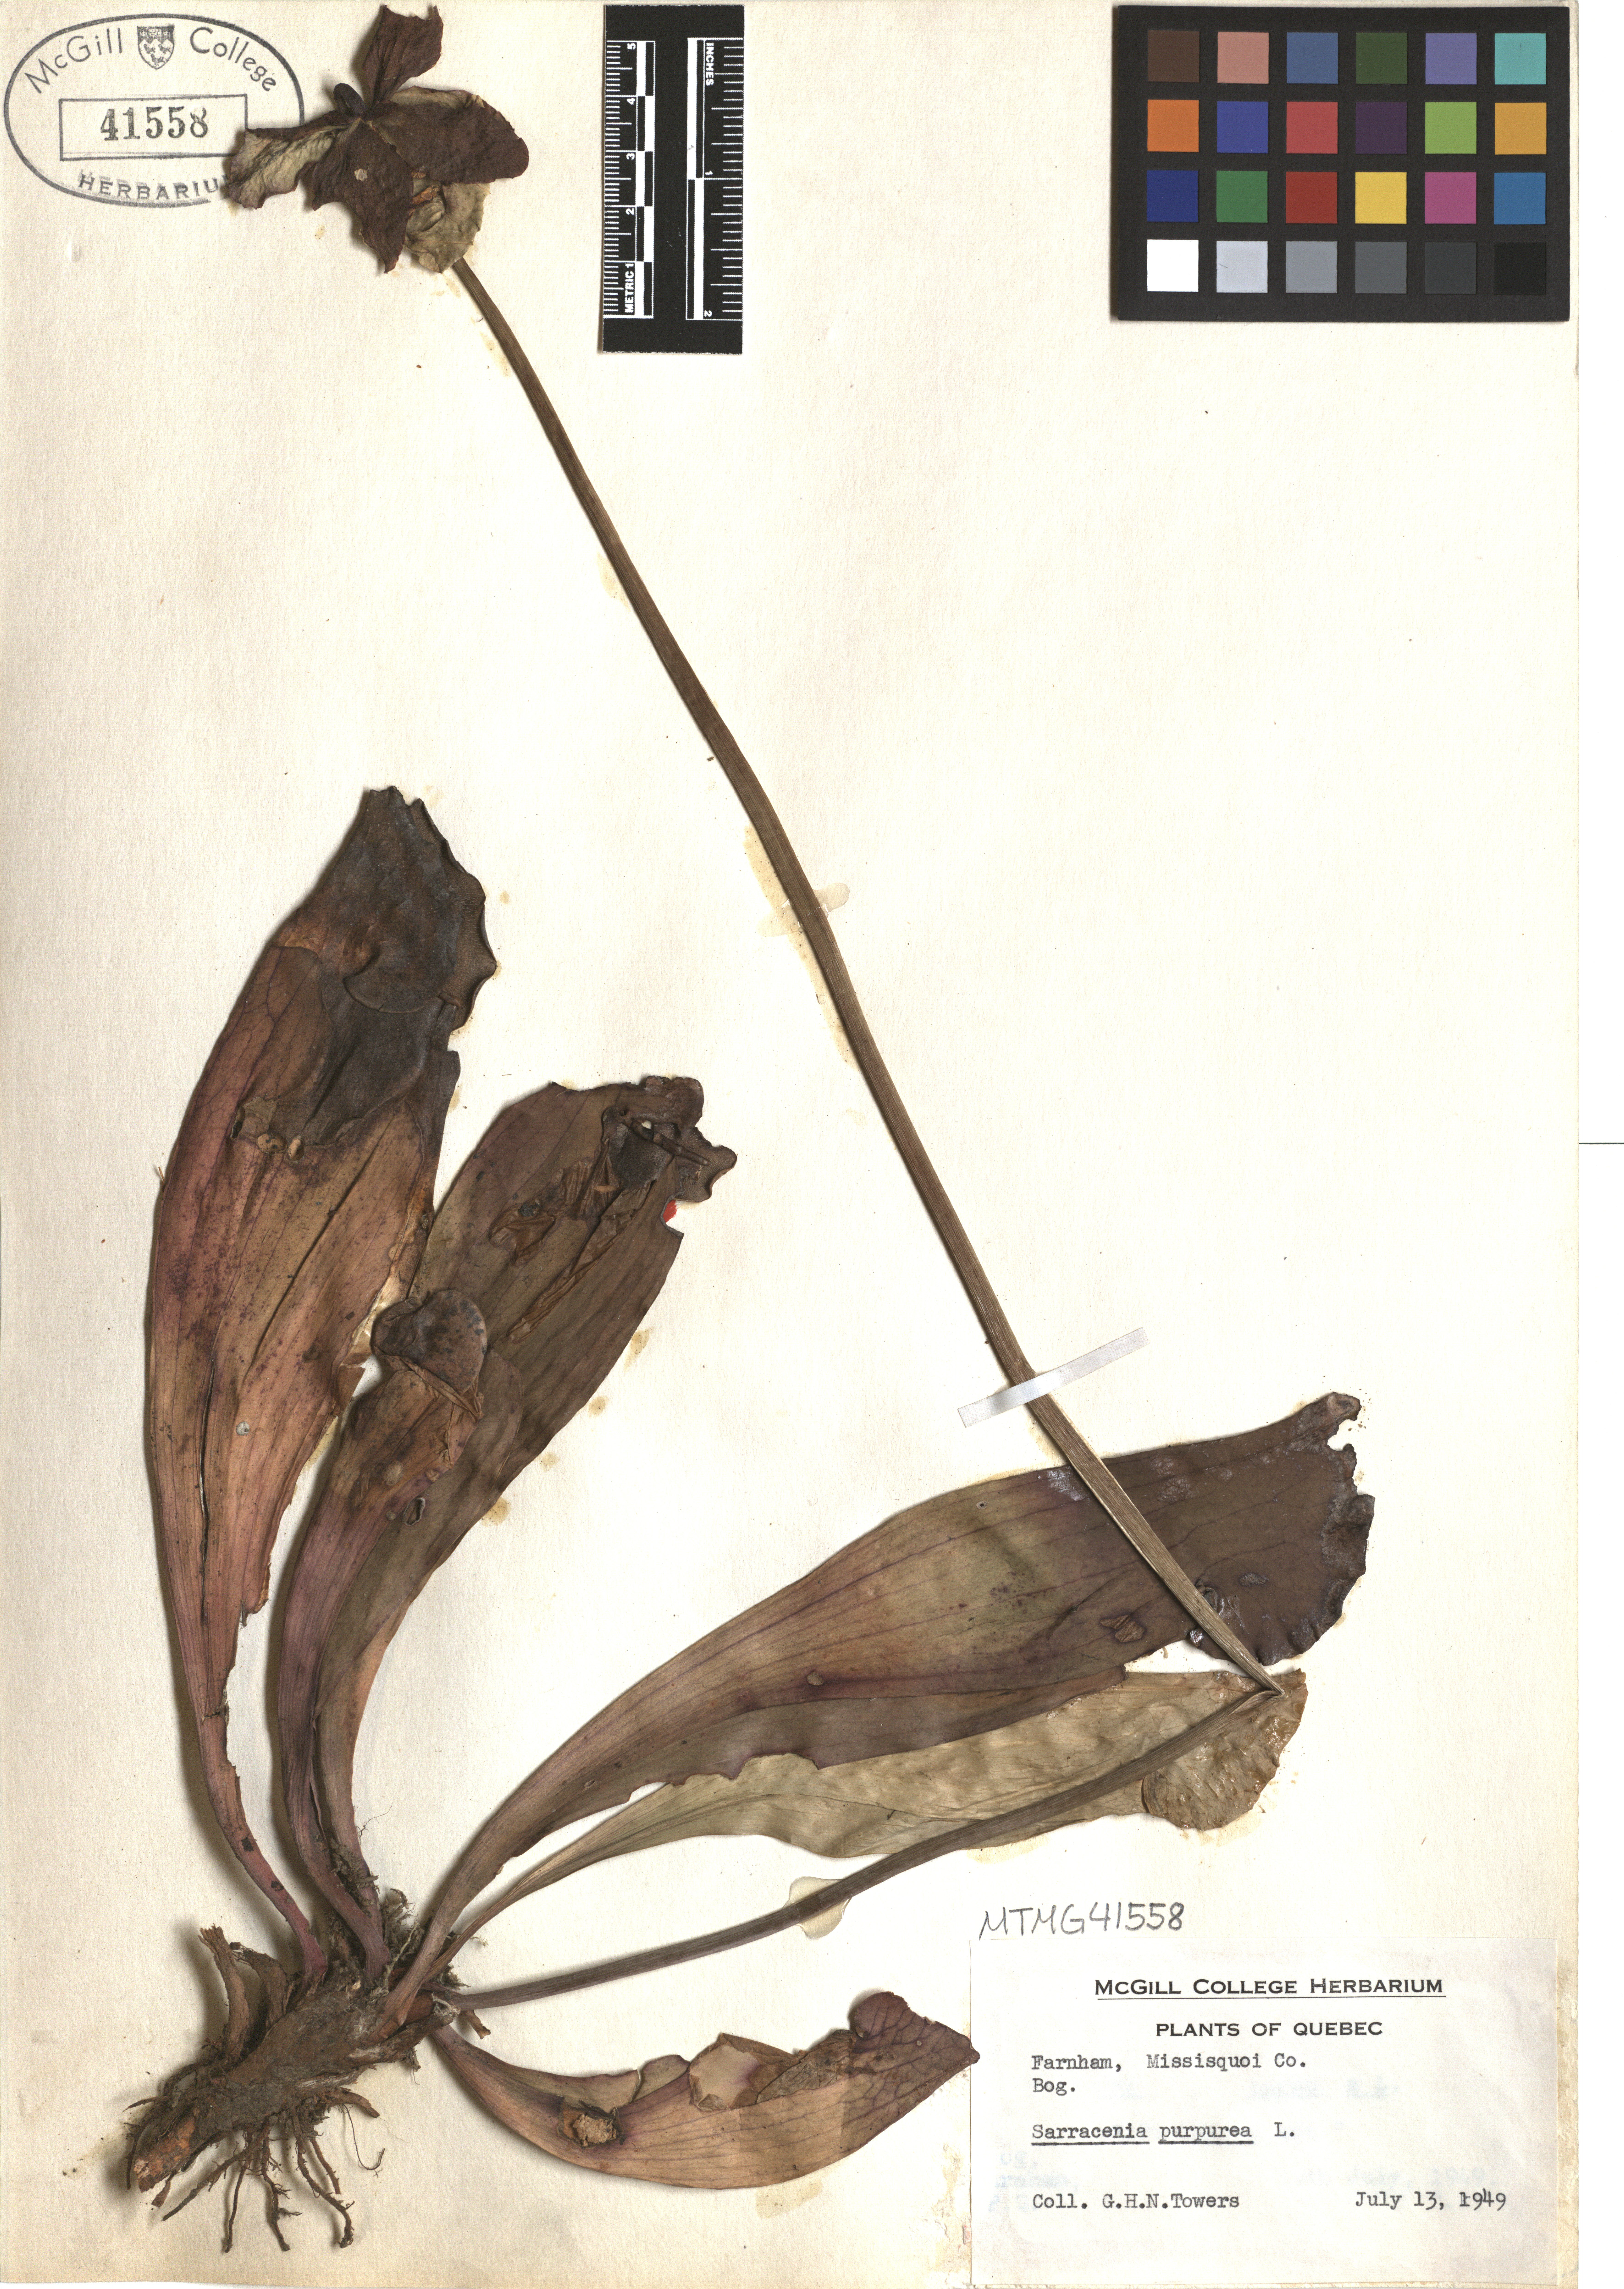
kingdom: Plantae
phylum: Tracheophyta
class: Magnoliopsida
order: Ericales
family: Sarraceniaceae
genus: Sarracenia
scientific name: Sarracenia purpurea
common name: Pitcherplant
